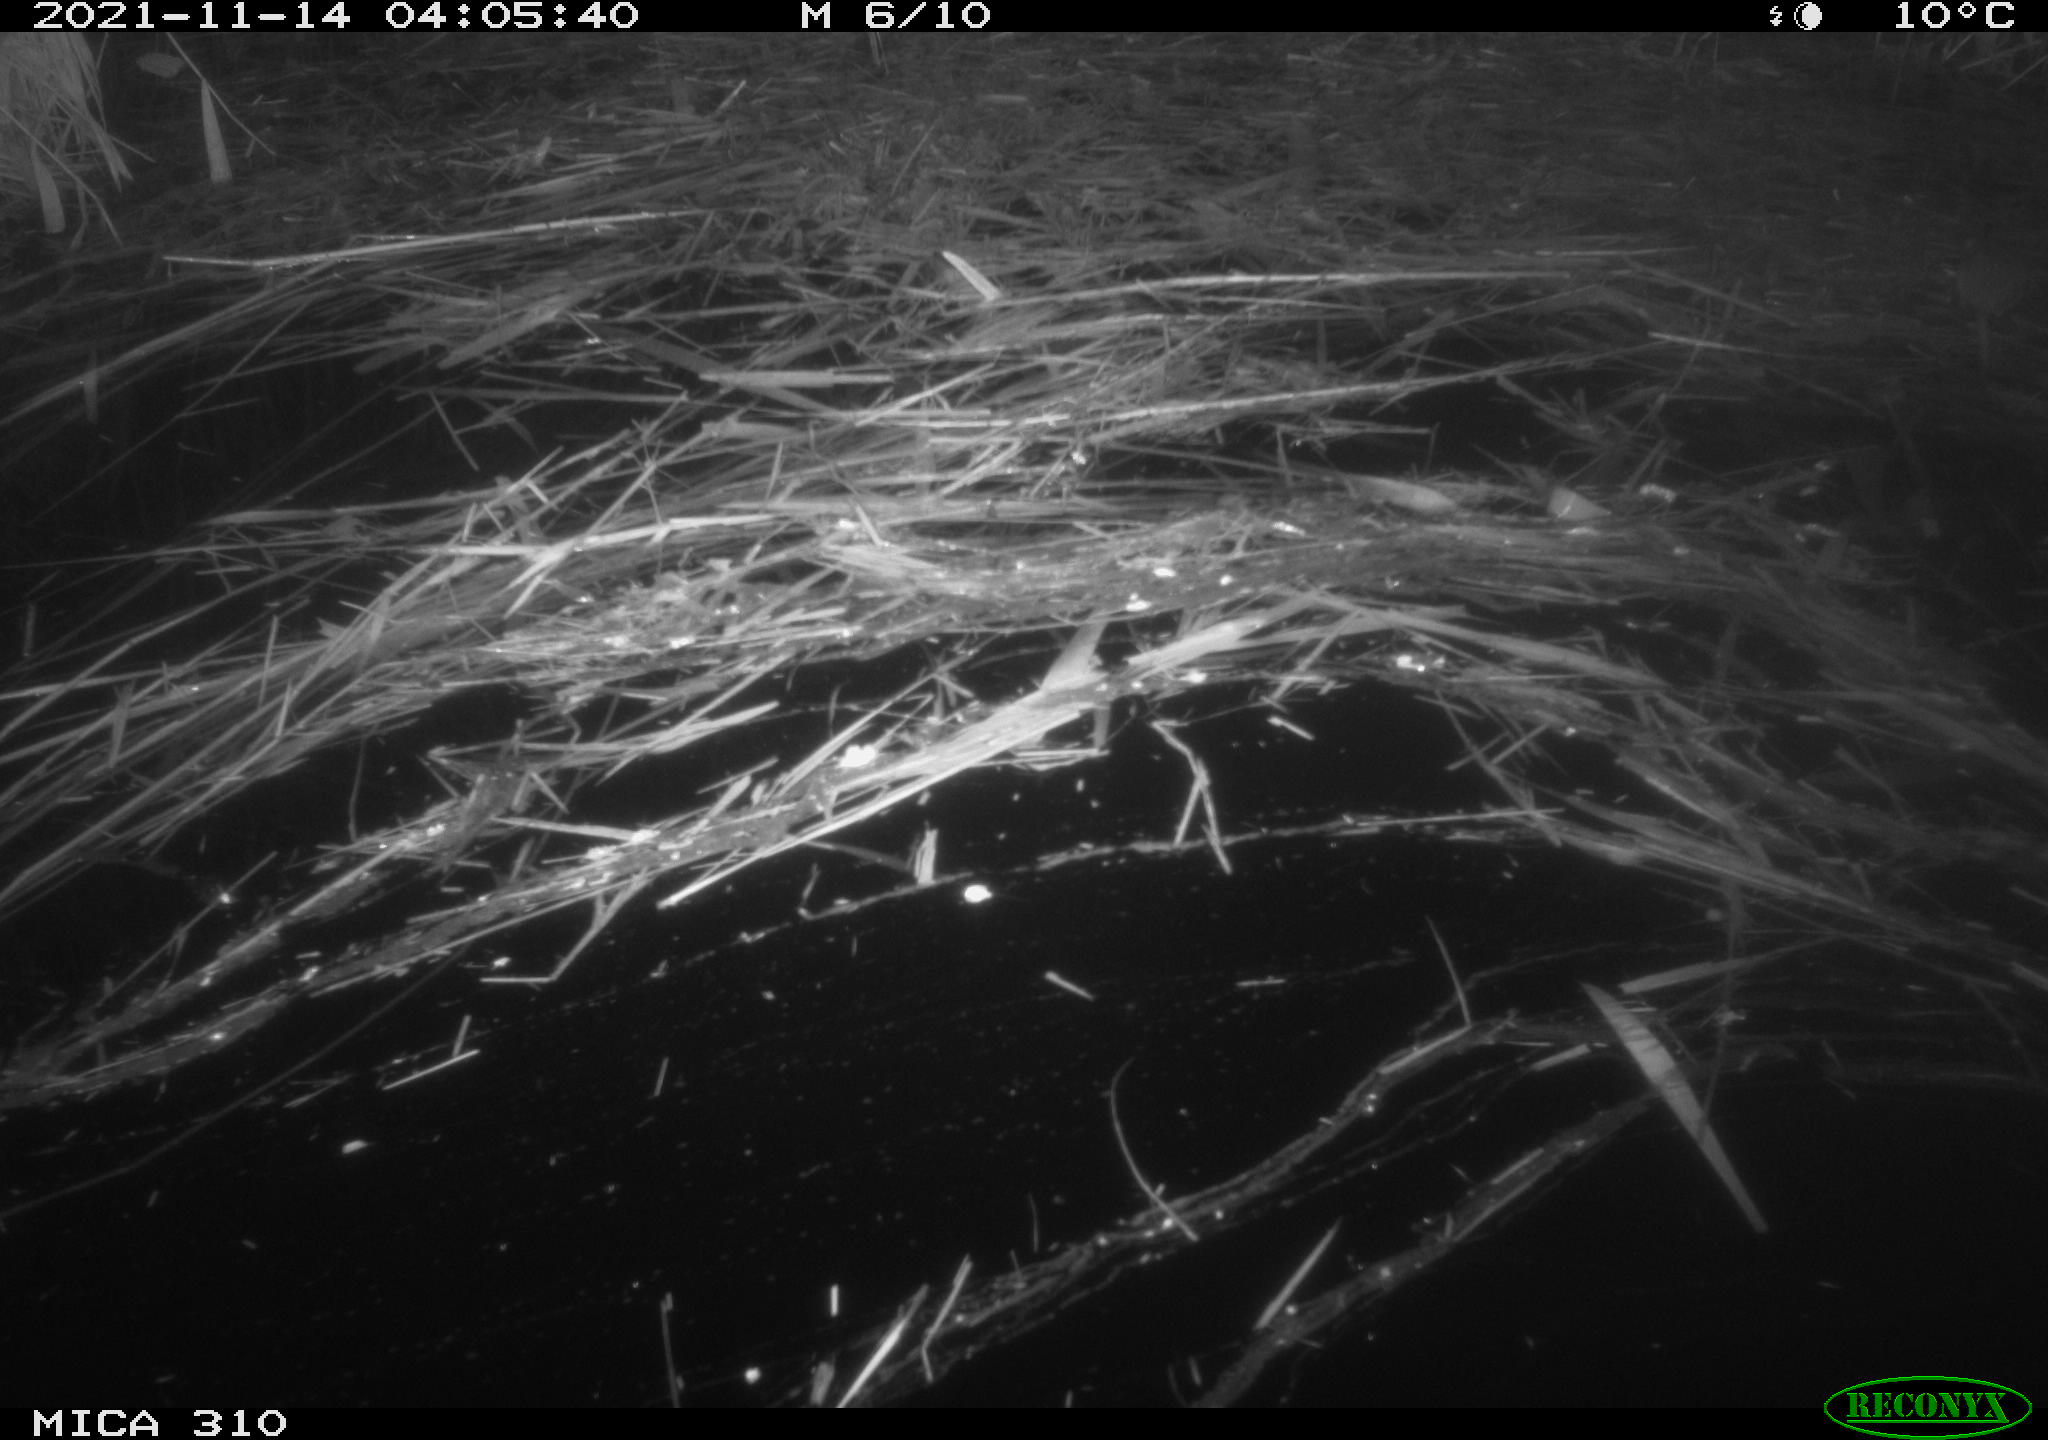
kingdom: Animalia
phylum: Chordata
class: Mammalia
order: Rodentia
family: Muridae
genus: Rattus
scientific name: Rattus norvegicus
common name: Brown rat
